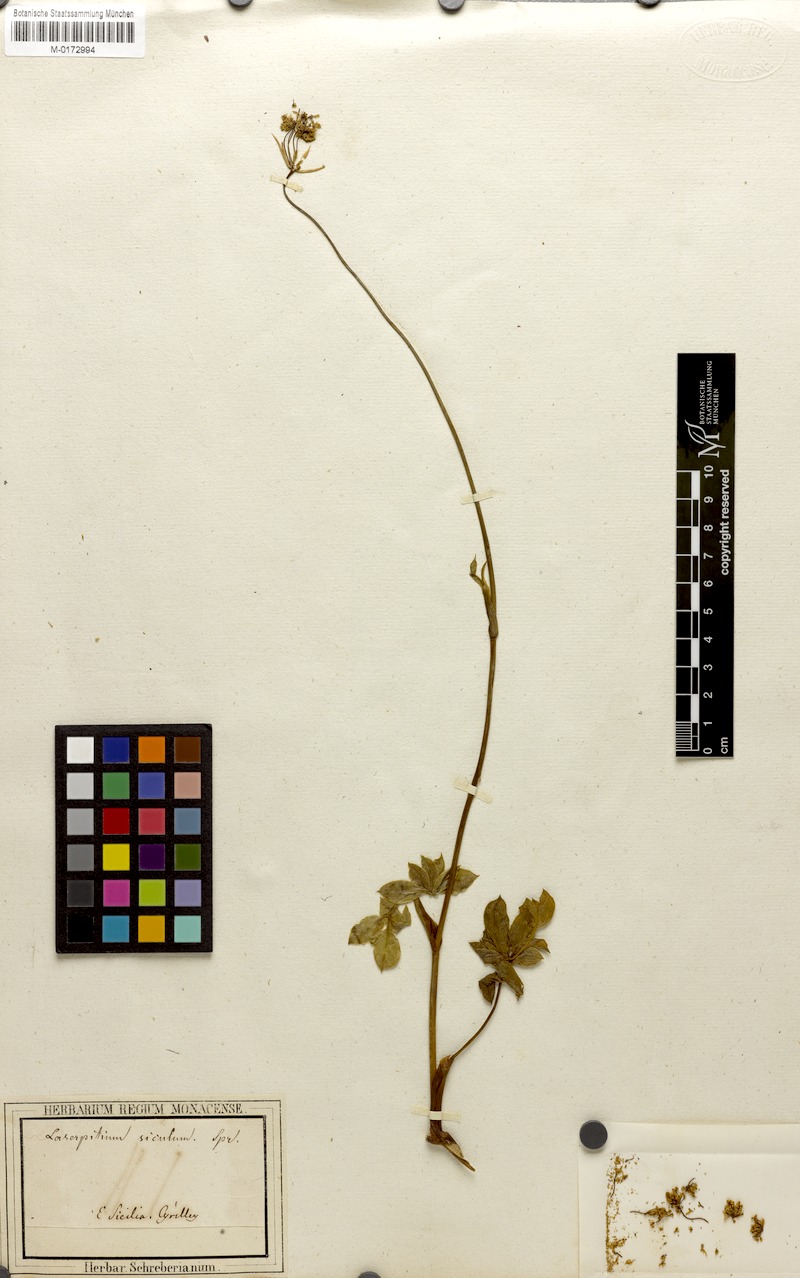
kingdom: Plantae
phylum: Tracheophyta
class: Magnoliopsida
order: Apiales
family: Apiaceae
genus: Siler
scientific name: Siler montanum
